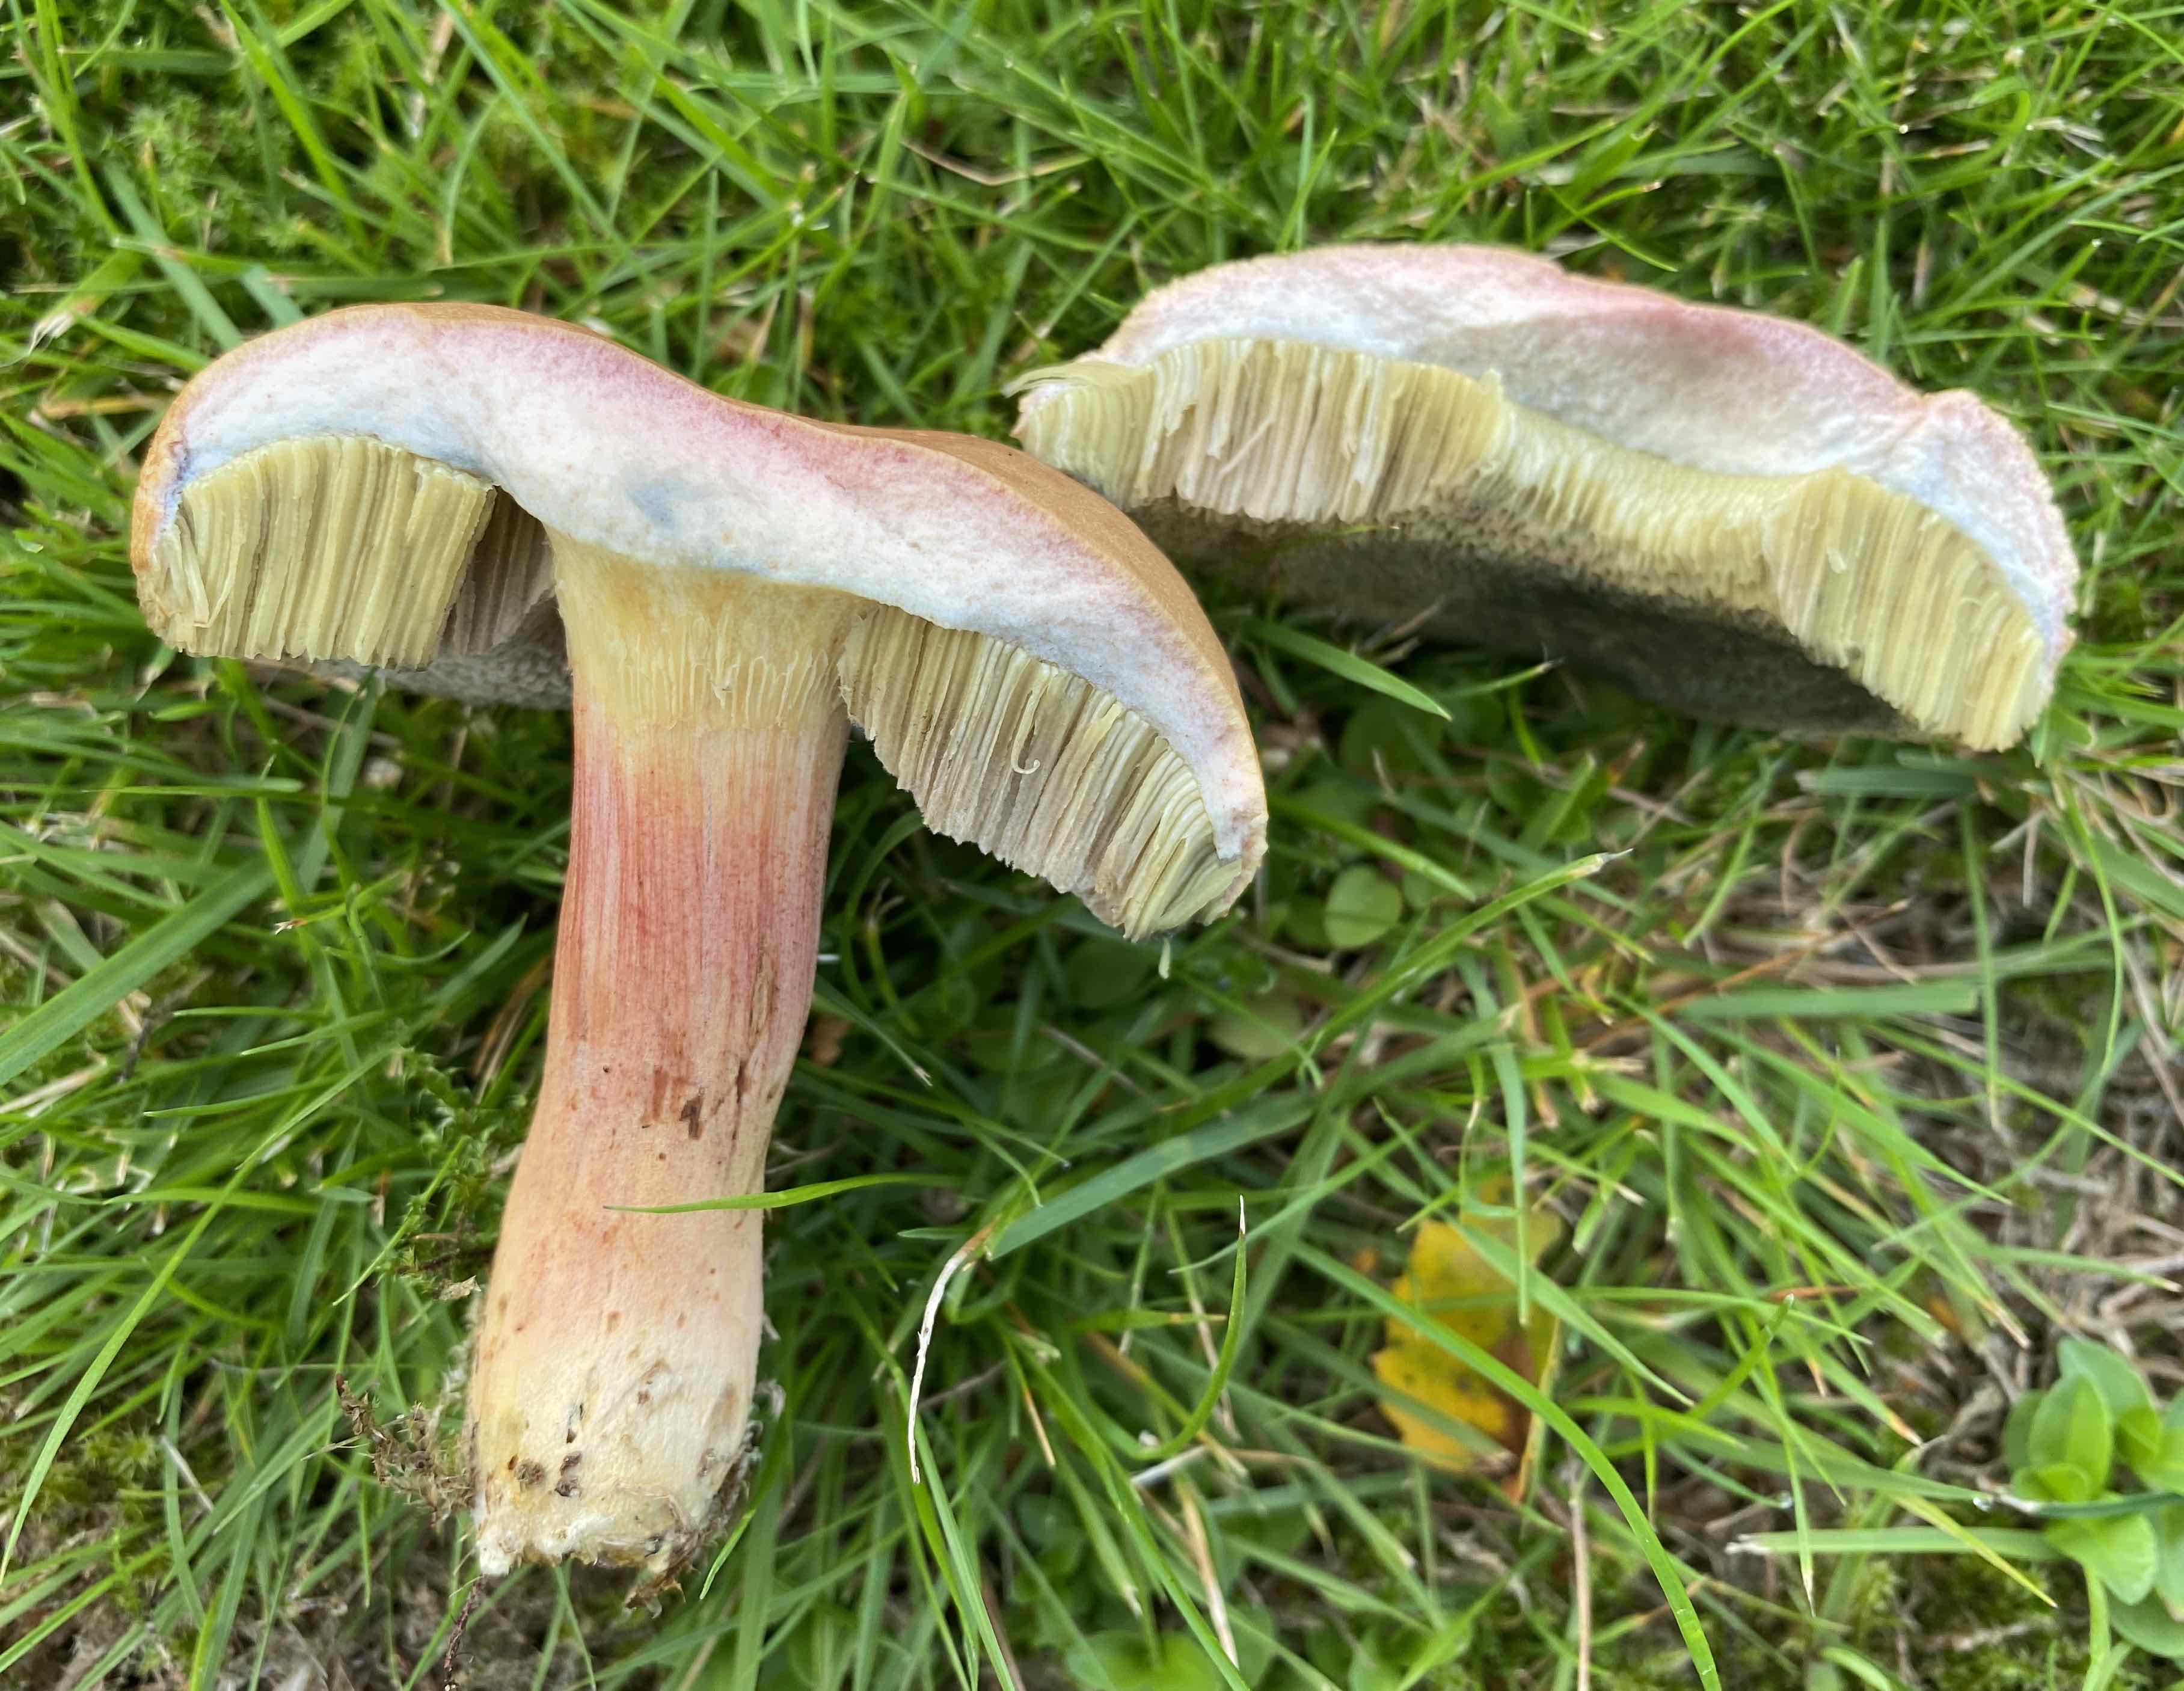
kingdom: Fungi
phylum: Basidiomycota
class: Agaricomycetes
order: Boletales
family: Boletaceae
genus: Hortiboletus
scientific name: Hortiboletus bubalinus
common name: aurora-rørhat
